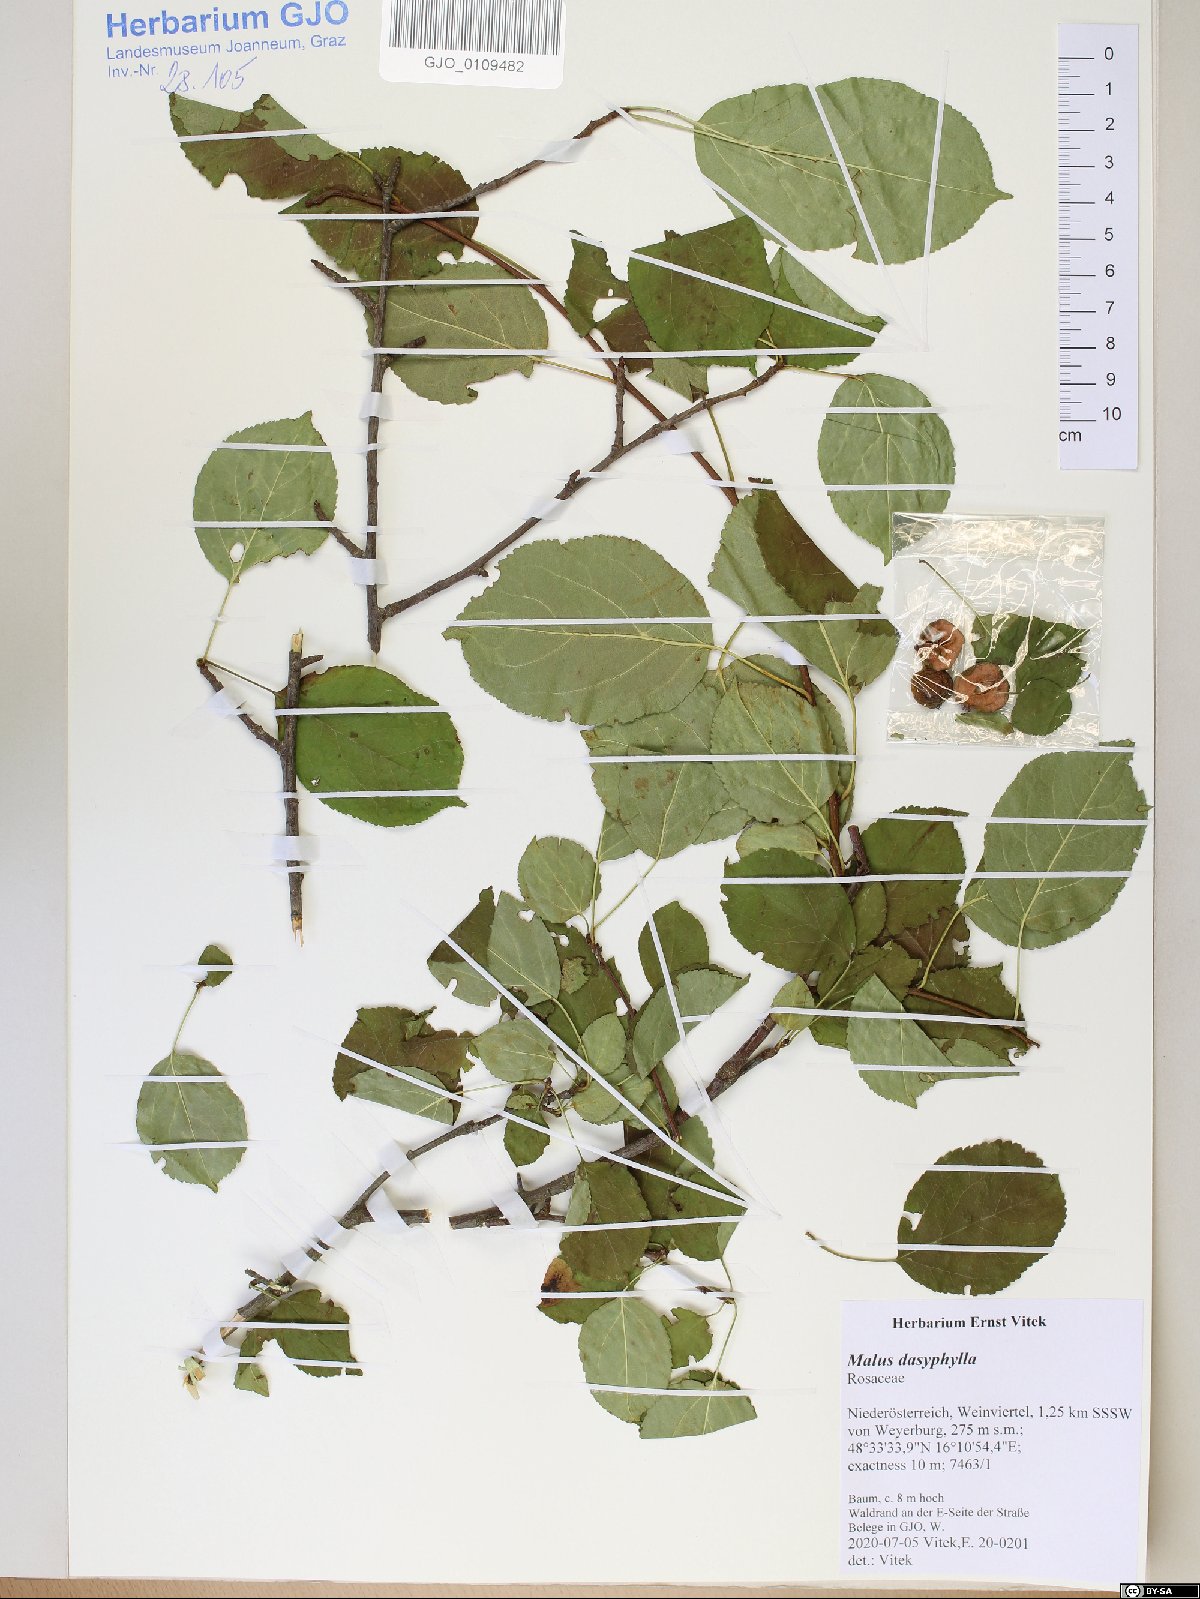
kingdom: Plantae
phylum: Tracheophyta
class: Magnoliopsida
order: Rosales
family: Rosaceae
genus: Malus
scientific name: Malus dasyphylla
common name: Paradise apple
